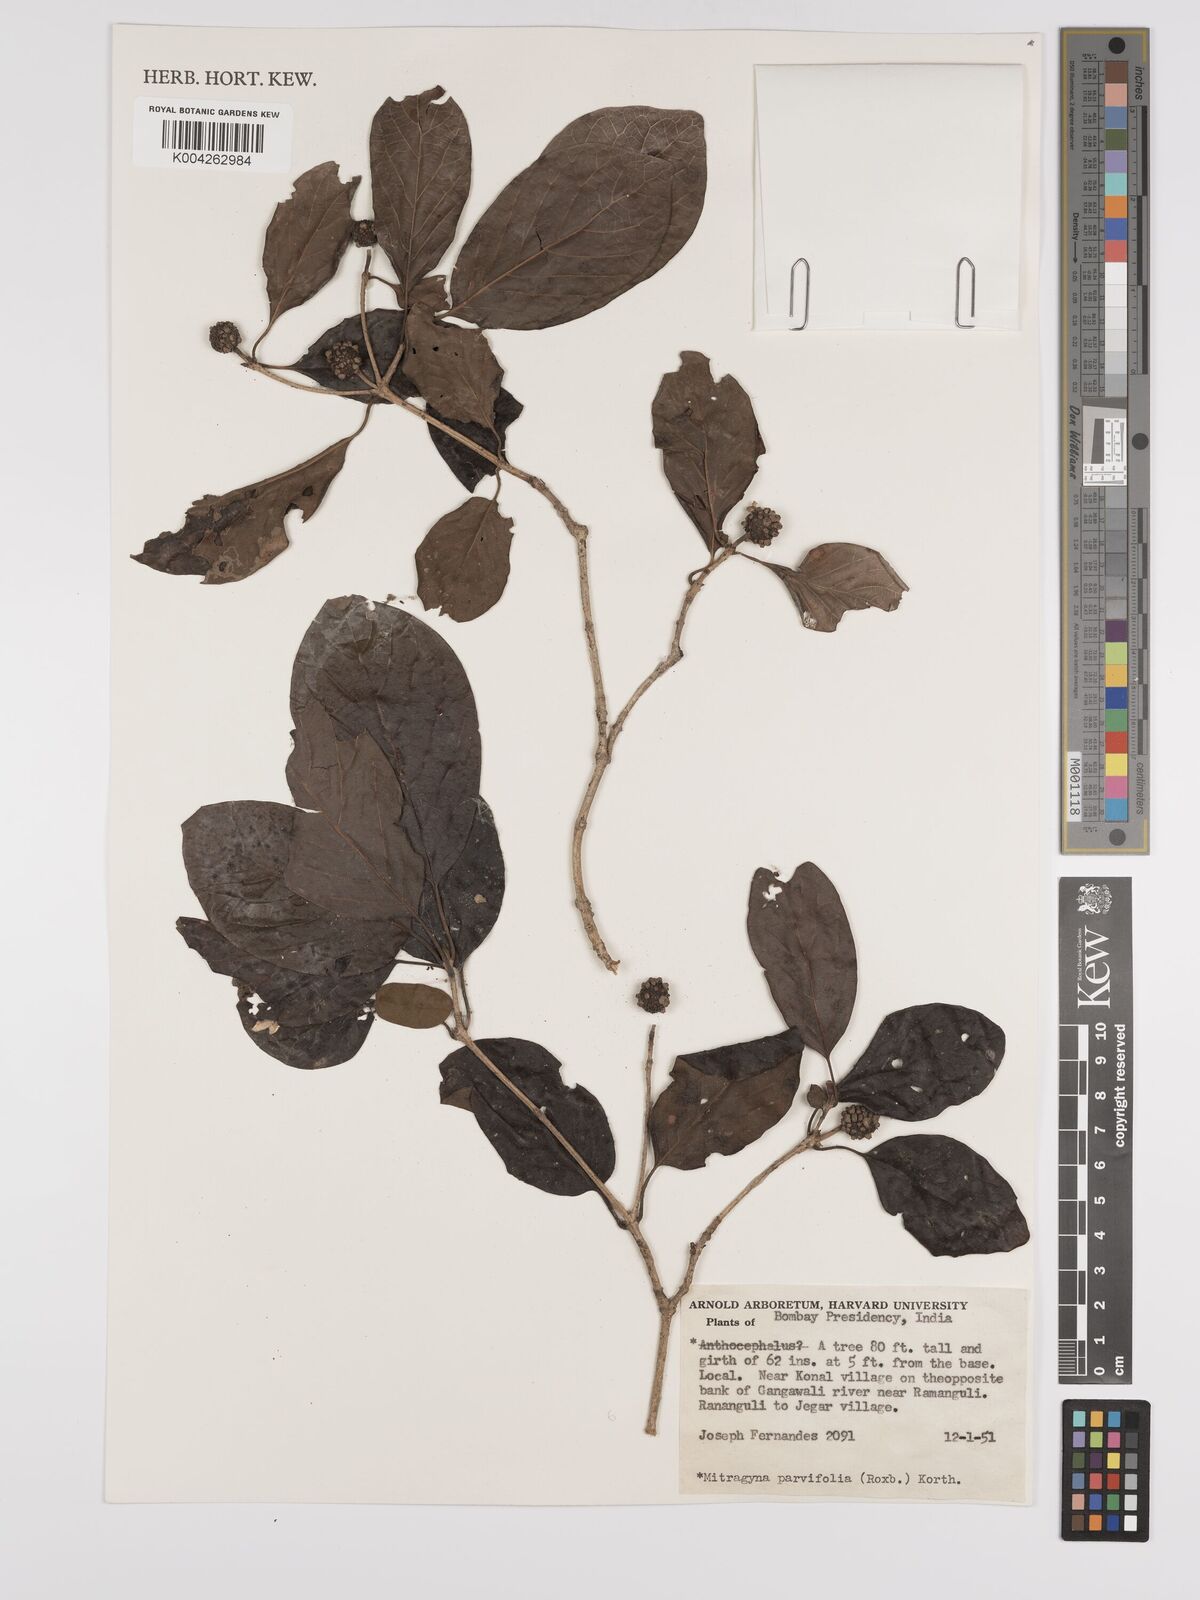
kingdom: Plantae
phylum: Tracheophyta
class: Magnoliopsida
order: Gentianales
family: Rubiaceae
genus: Mitragyna
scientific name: Mitragyna parvifolia
